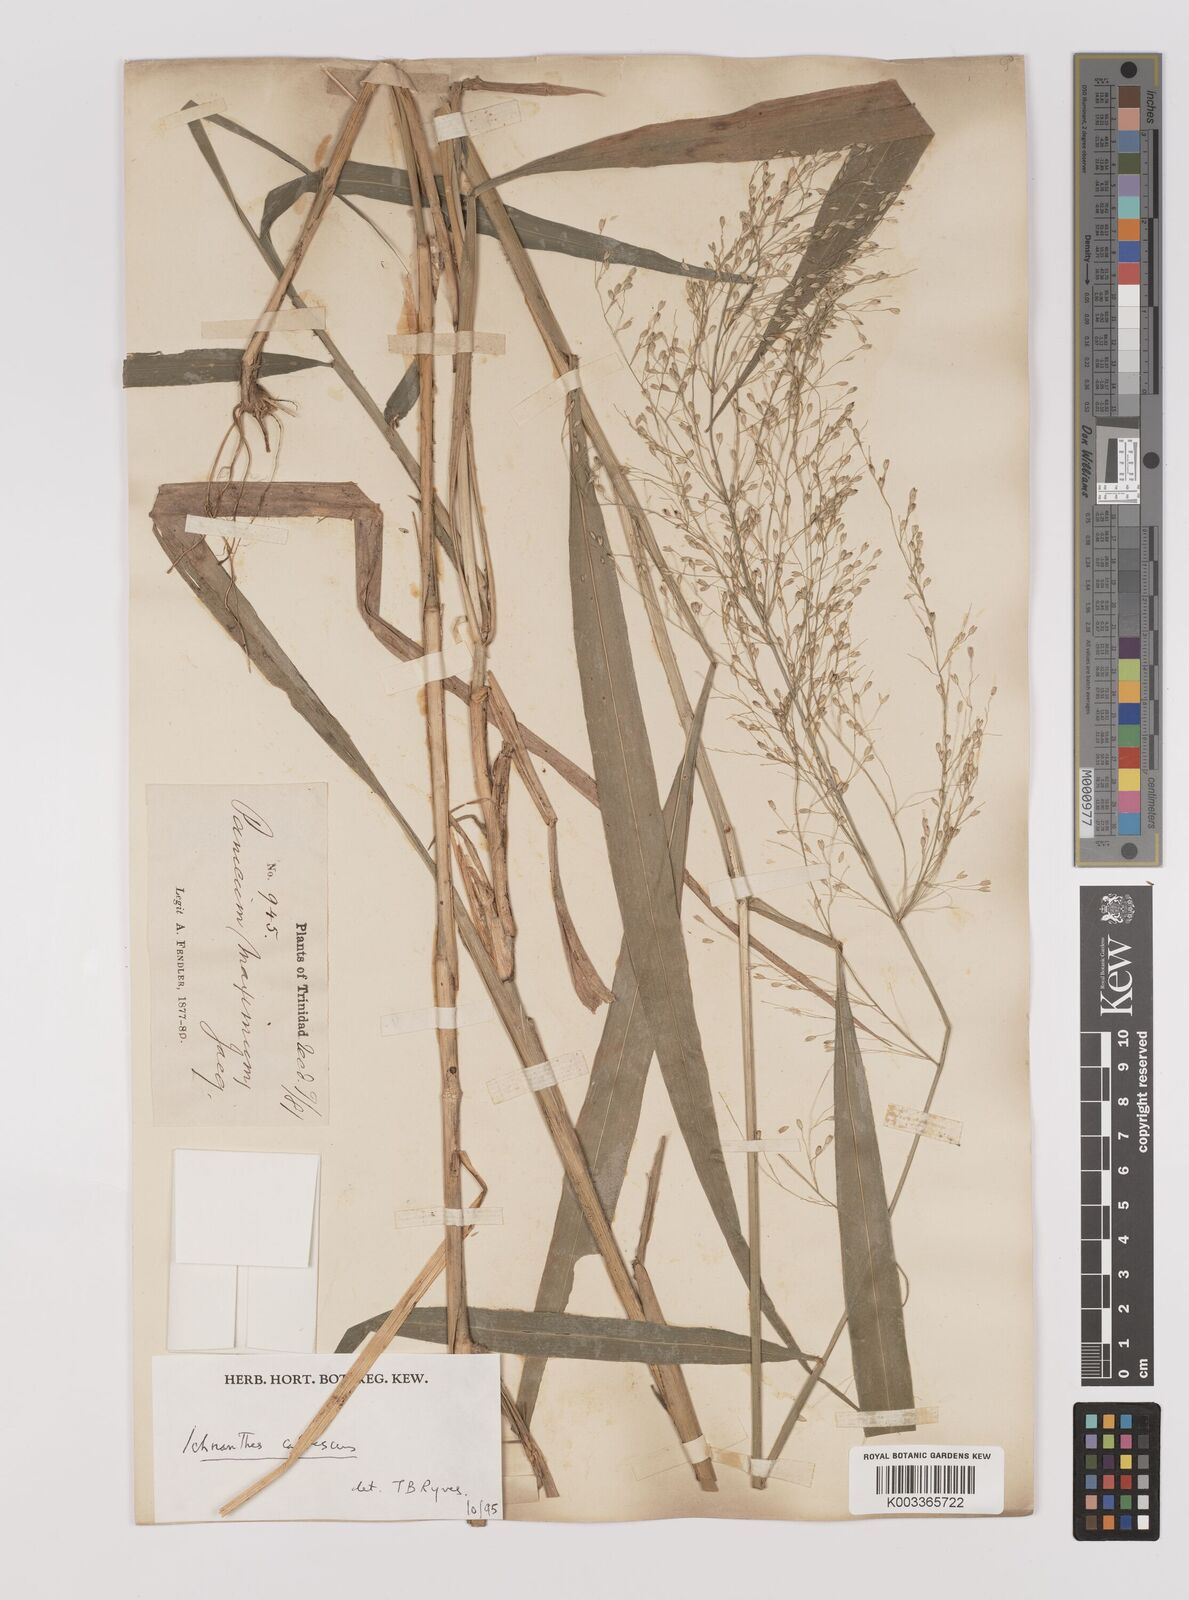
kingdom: Plantae
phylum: Tracheophyta
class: Liliopsida
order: Poales
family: Poaceae
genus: Ichnanthus
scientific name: Ichnanthus calvescens
